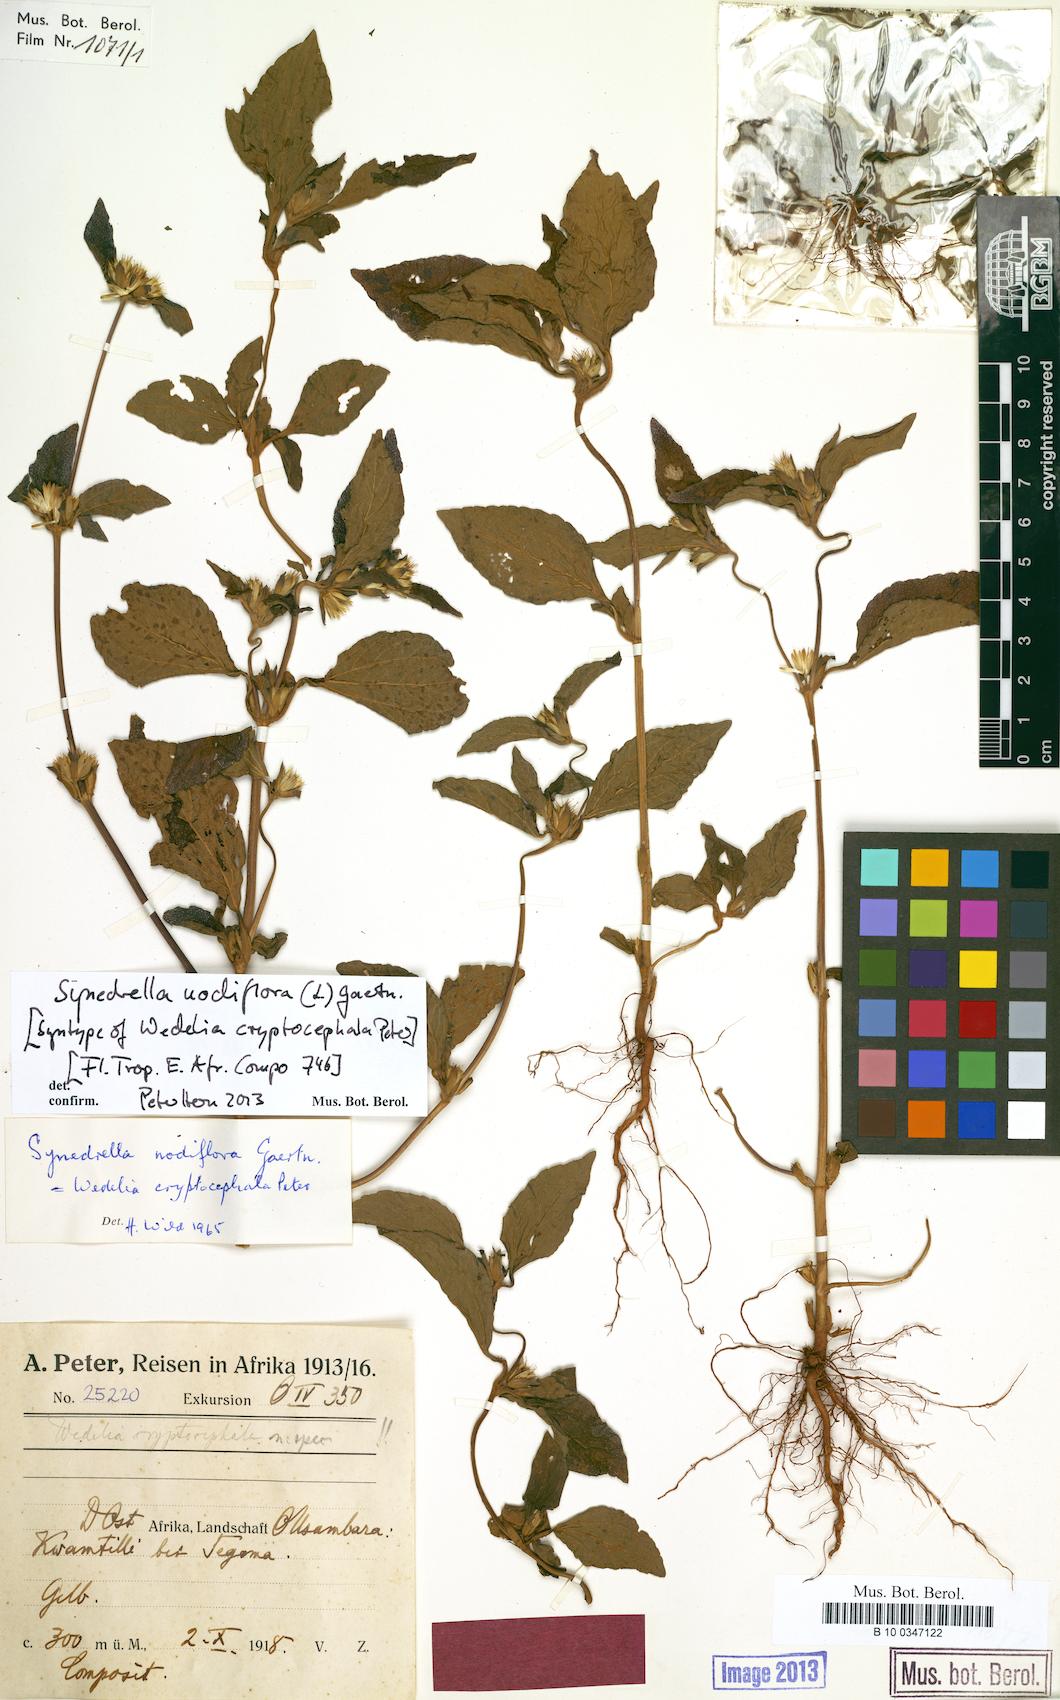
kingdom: Plantae
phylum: Tracheophyta
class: Magnoliopsida
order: Asterales
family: Asteraceae
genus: Synedrella
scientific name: Synedrella nodiflora
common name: Nodeweed
